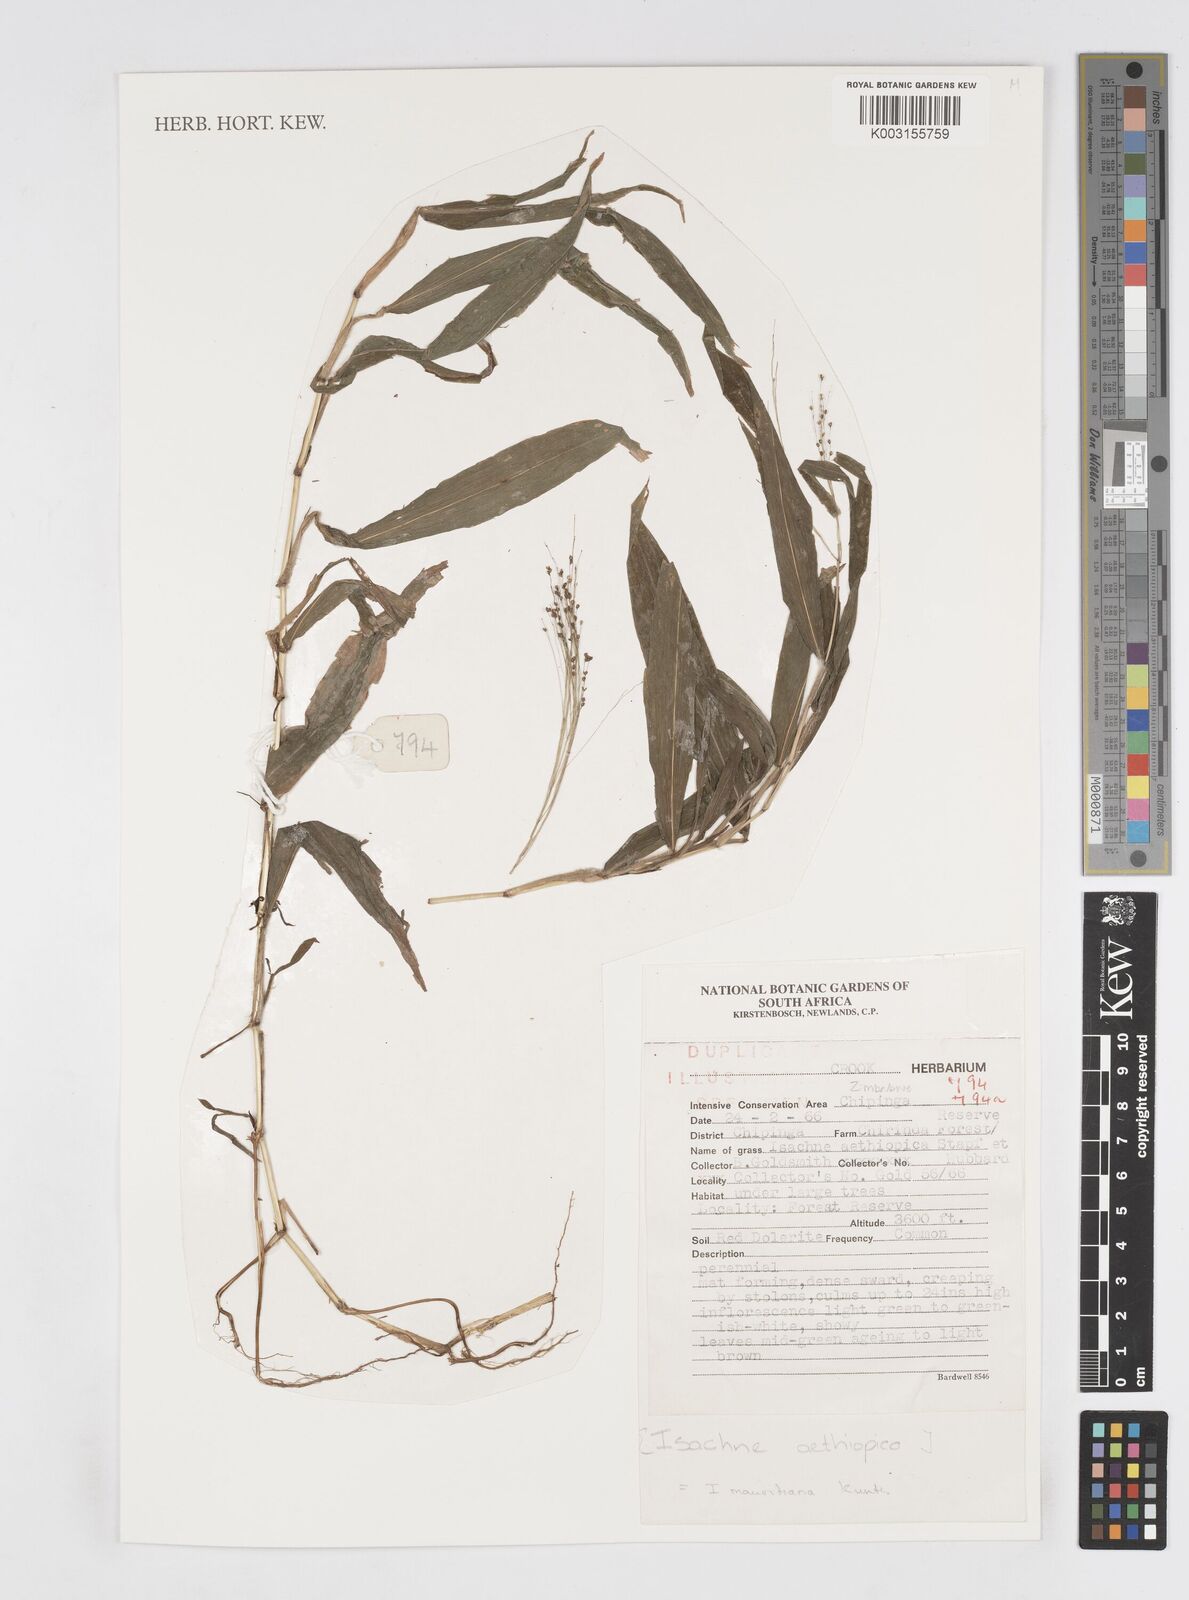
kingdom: Plantae
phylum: Tracheophyta
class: Liliopsida
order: Poales
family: Poaceae
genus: Isachne
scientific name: Isachne mauritiana
